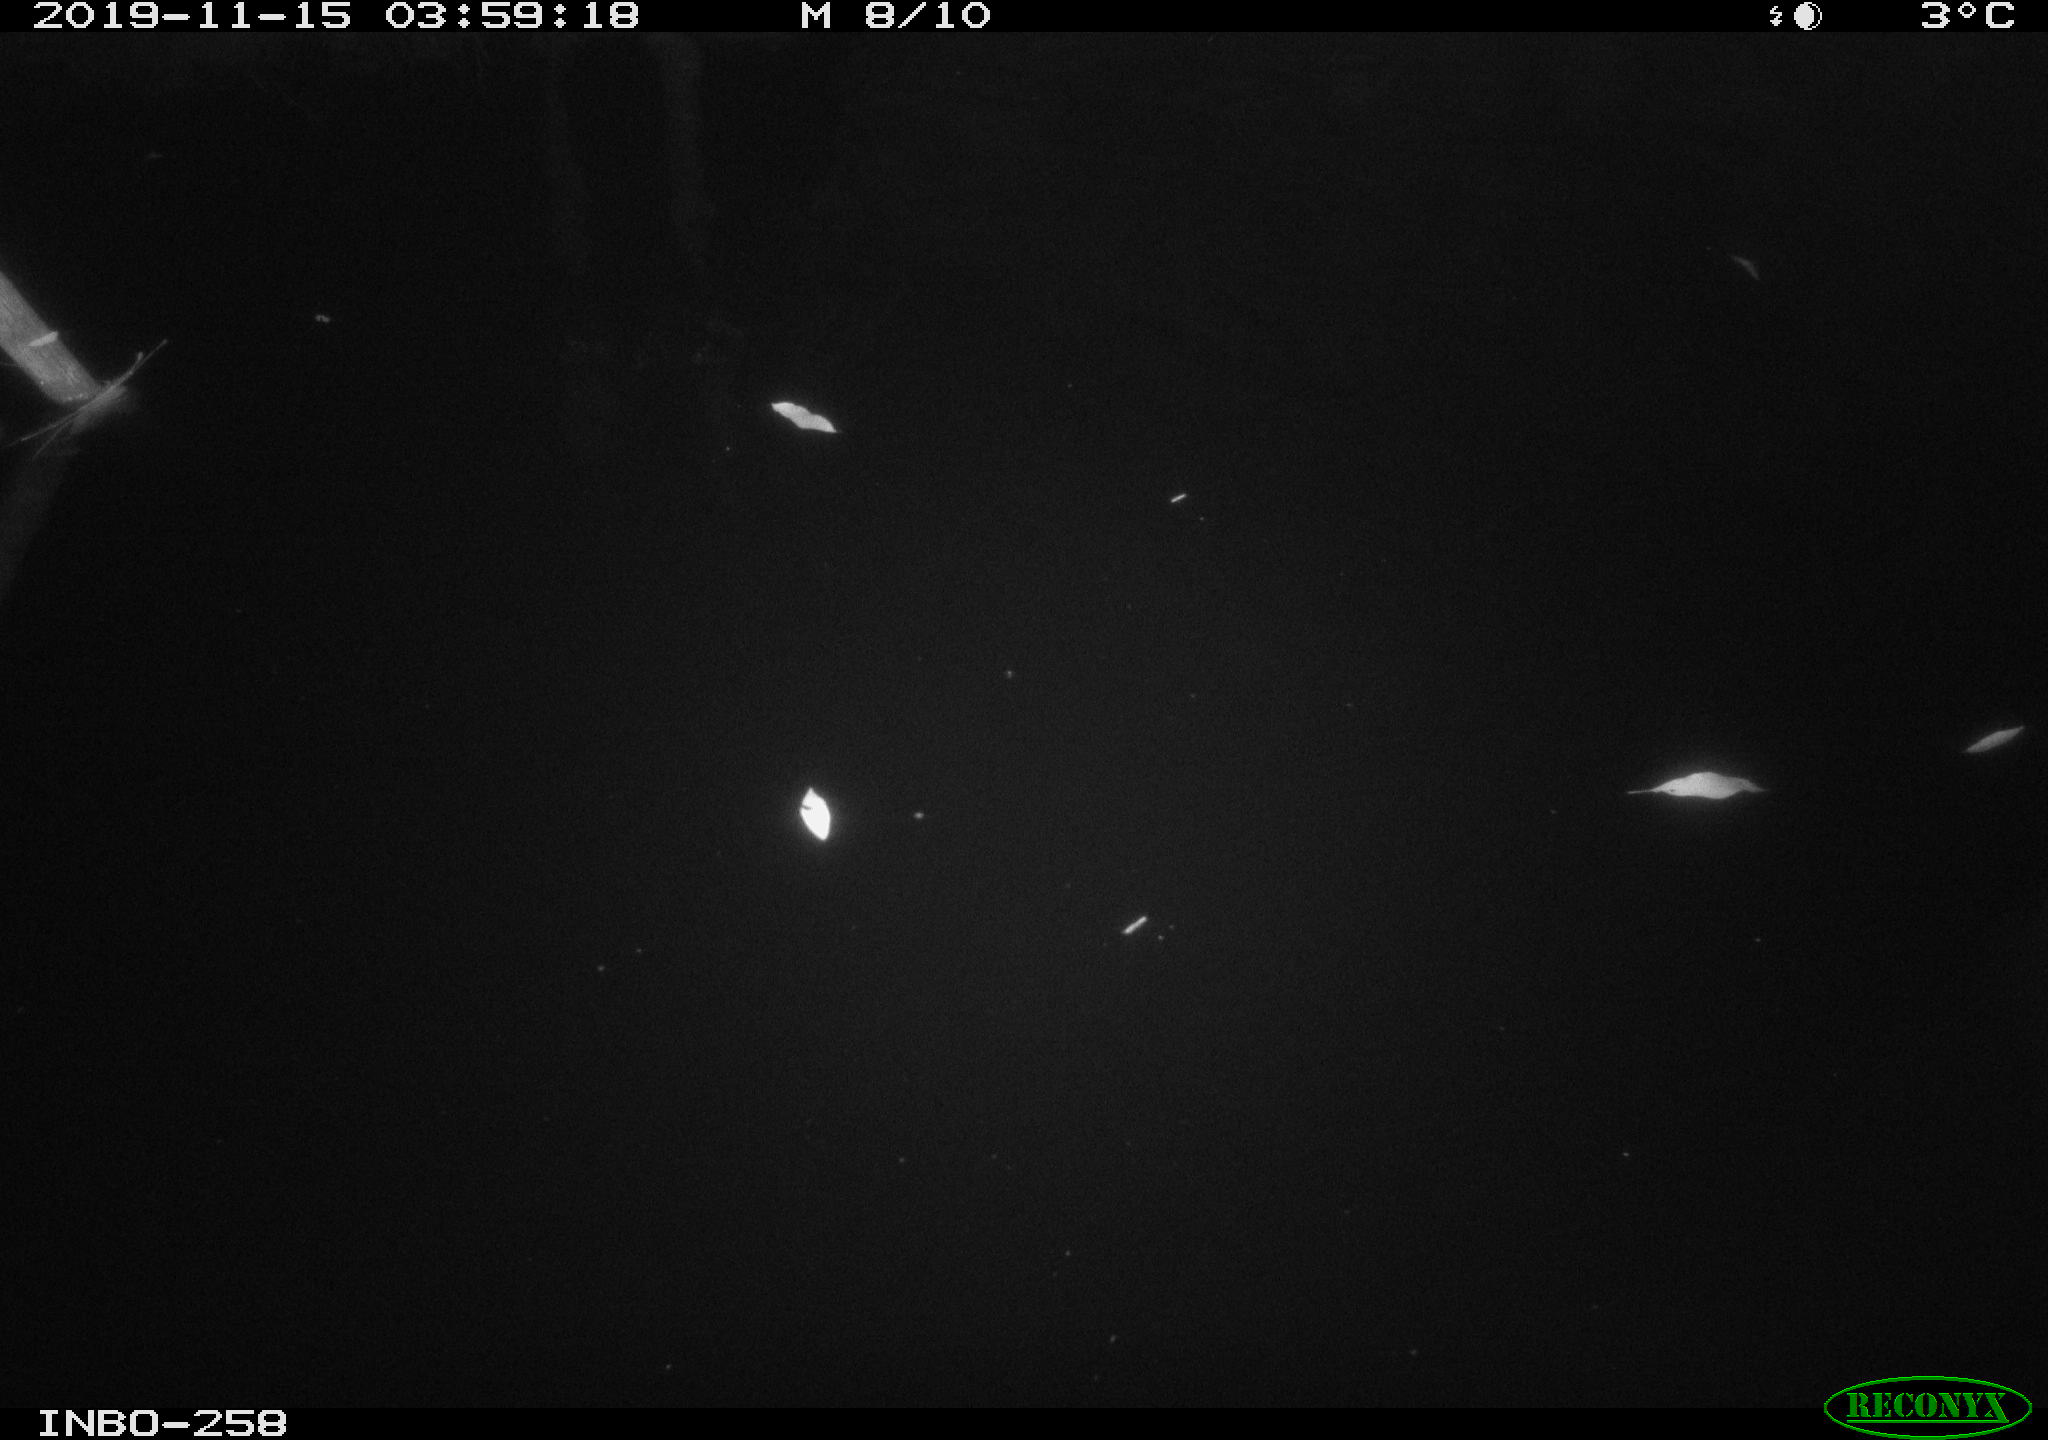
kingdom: Animalia
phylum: Chordata
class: Aves
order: Anseriformes
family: Anatidae
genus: Anas
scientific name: Anas platyrhynchos
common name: Mallard
